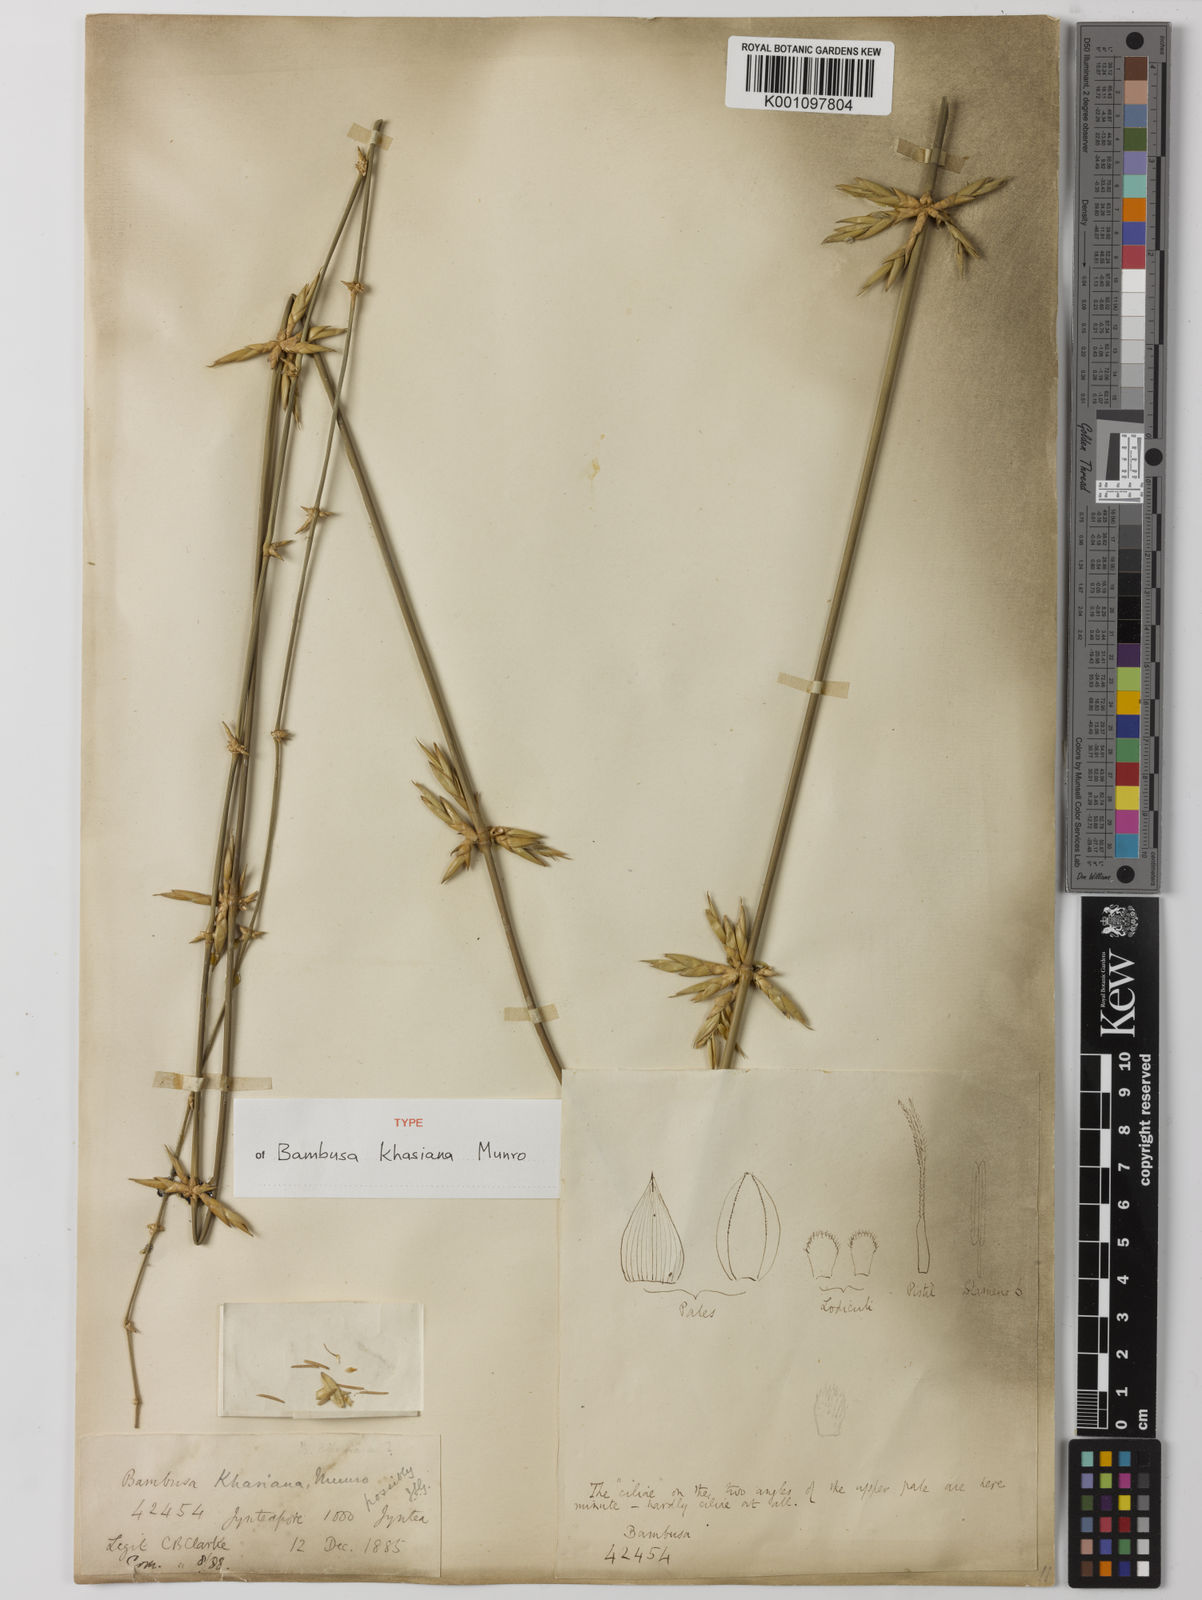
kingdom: Plantae
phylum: Tracheophyta
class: Liliopsida
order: Poales
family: Poaceae
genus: Bambusa
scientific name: Bambusa khasiana
